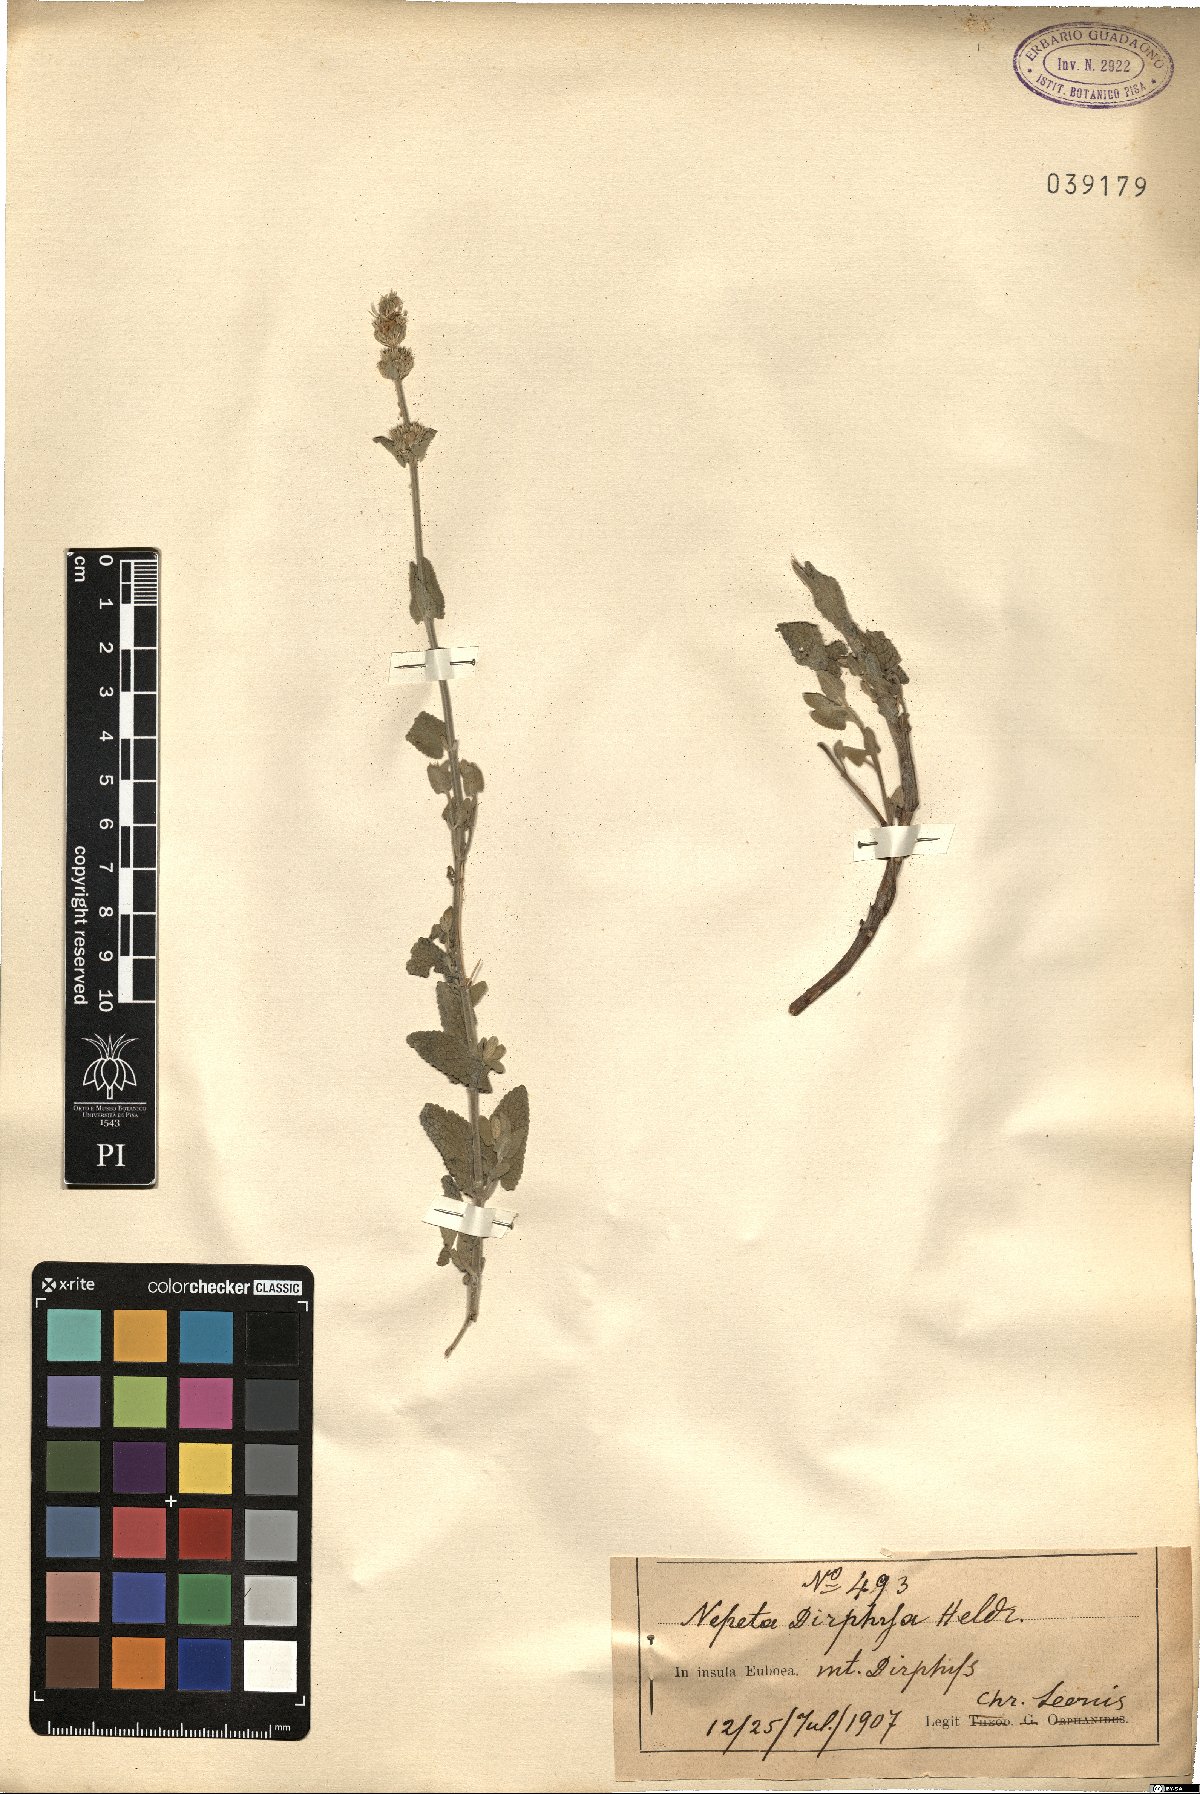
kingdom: Plantae
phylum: Tracheophyta
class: Magnoliopsida
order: Lamiales
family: Lamiaceae
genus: Nepeta
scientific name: Nepeta argolica
